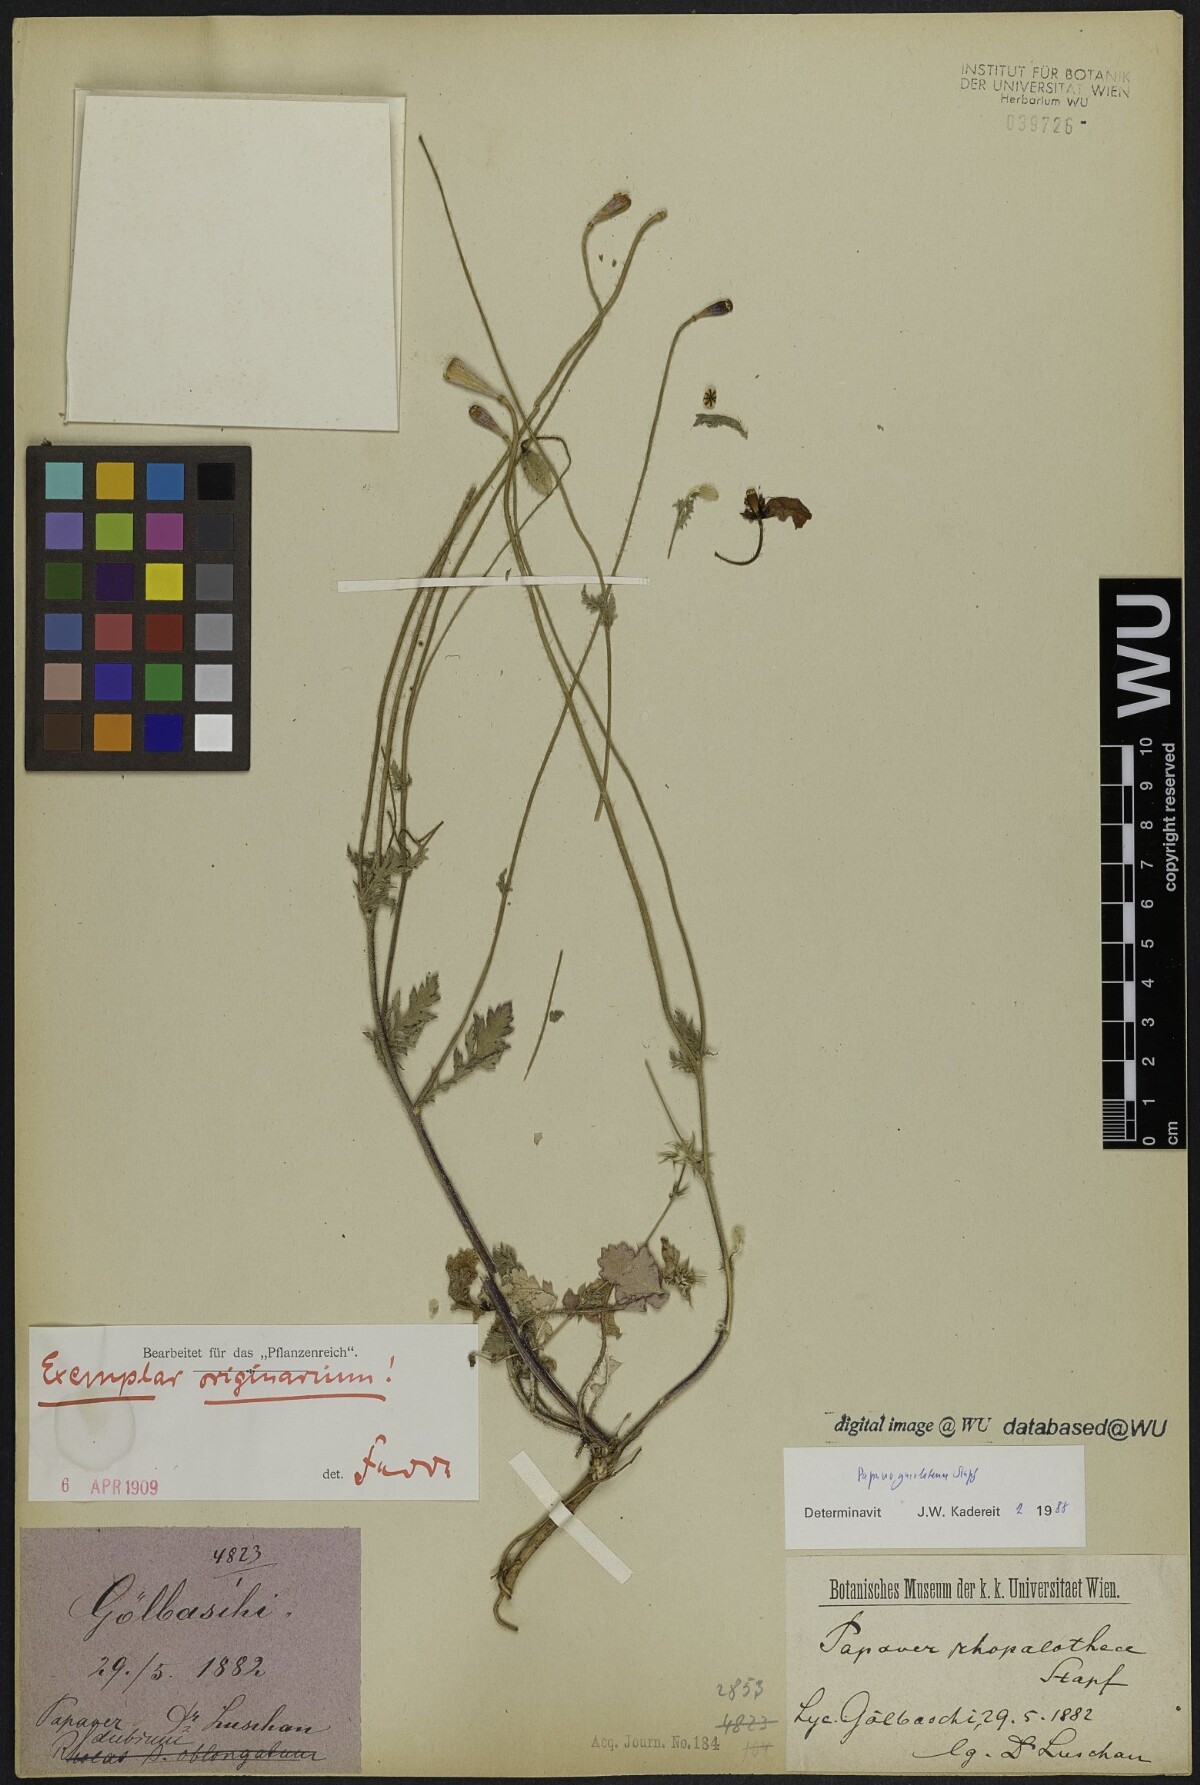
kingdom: Plantae
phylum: Tracheophyta
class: Magnoliopsida
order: Ranunculales
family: Papaveraceae
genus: Papaver
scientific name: Papaver guerlekense
